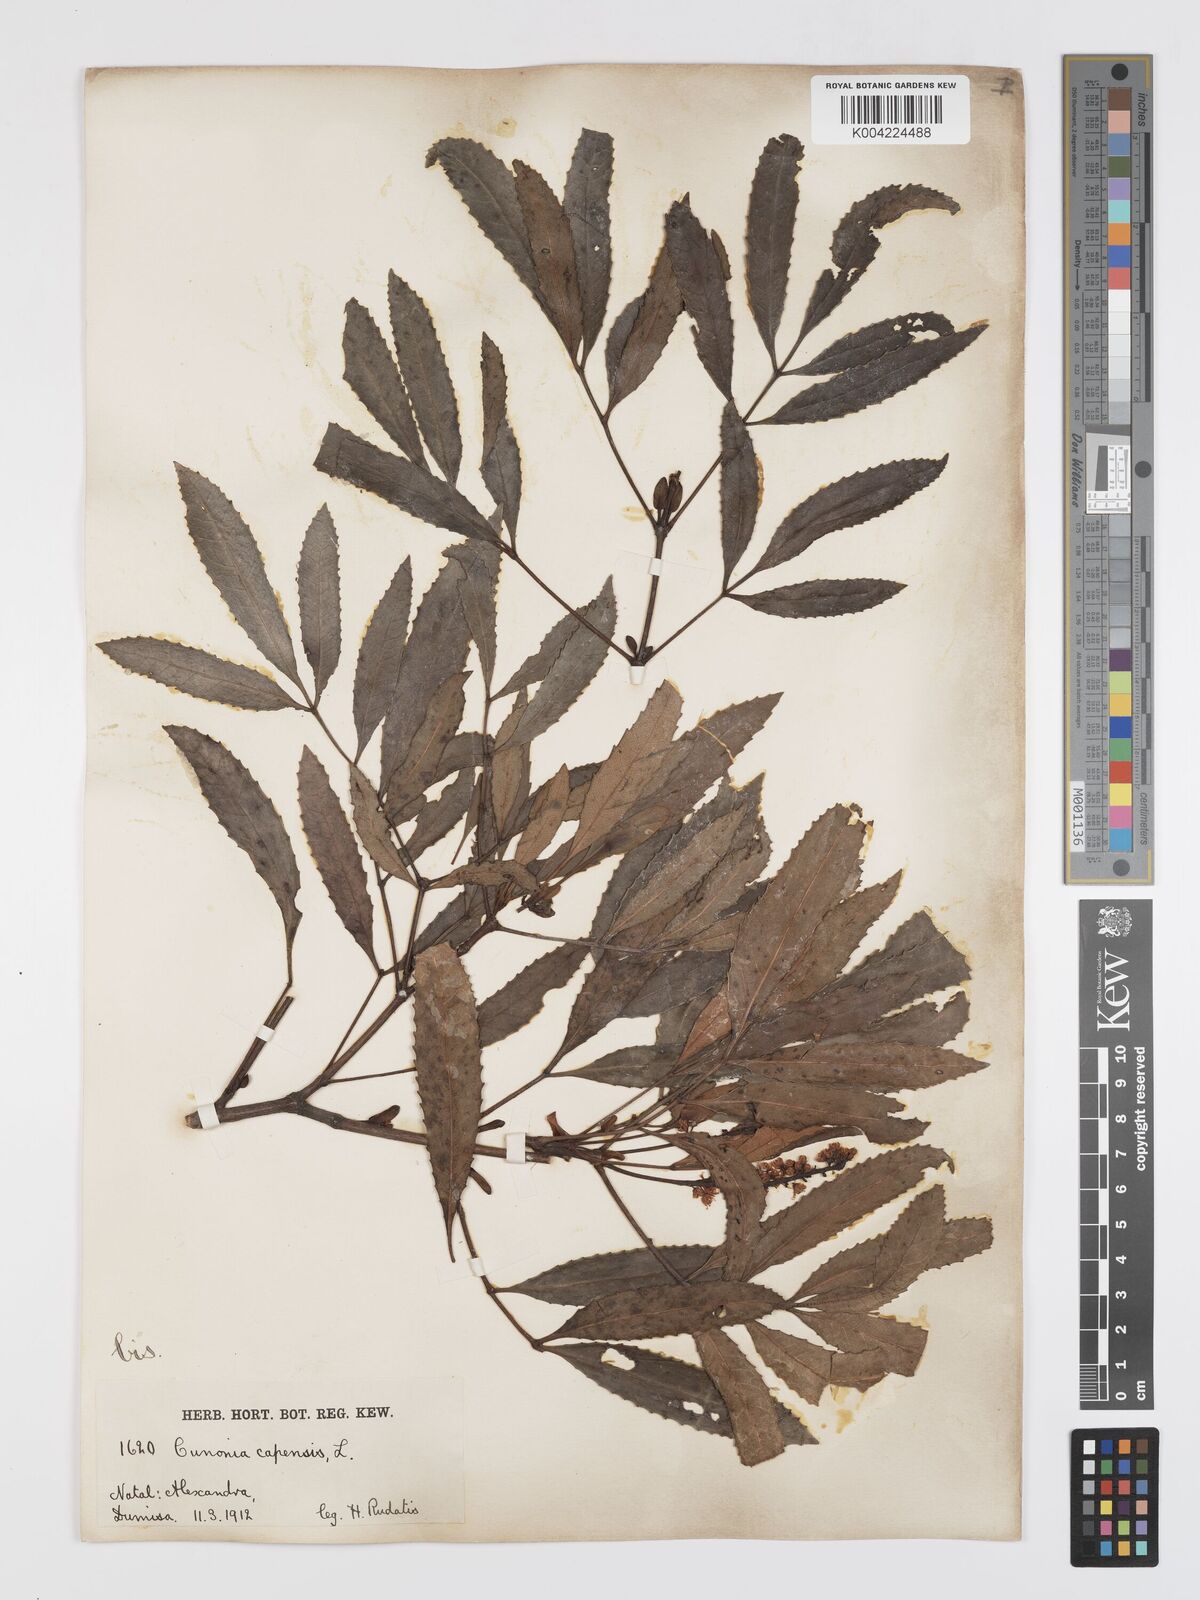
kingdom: Plantae
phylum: Tracheophyta
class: Magnoliopsida
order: Oxalidales
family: Cunoniaceae
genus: Cunonia
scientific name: Cunonia capensis
